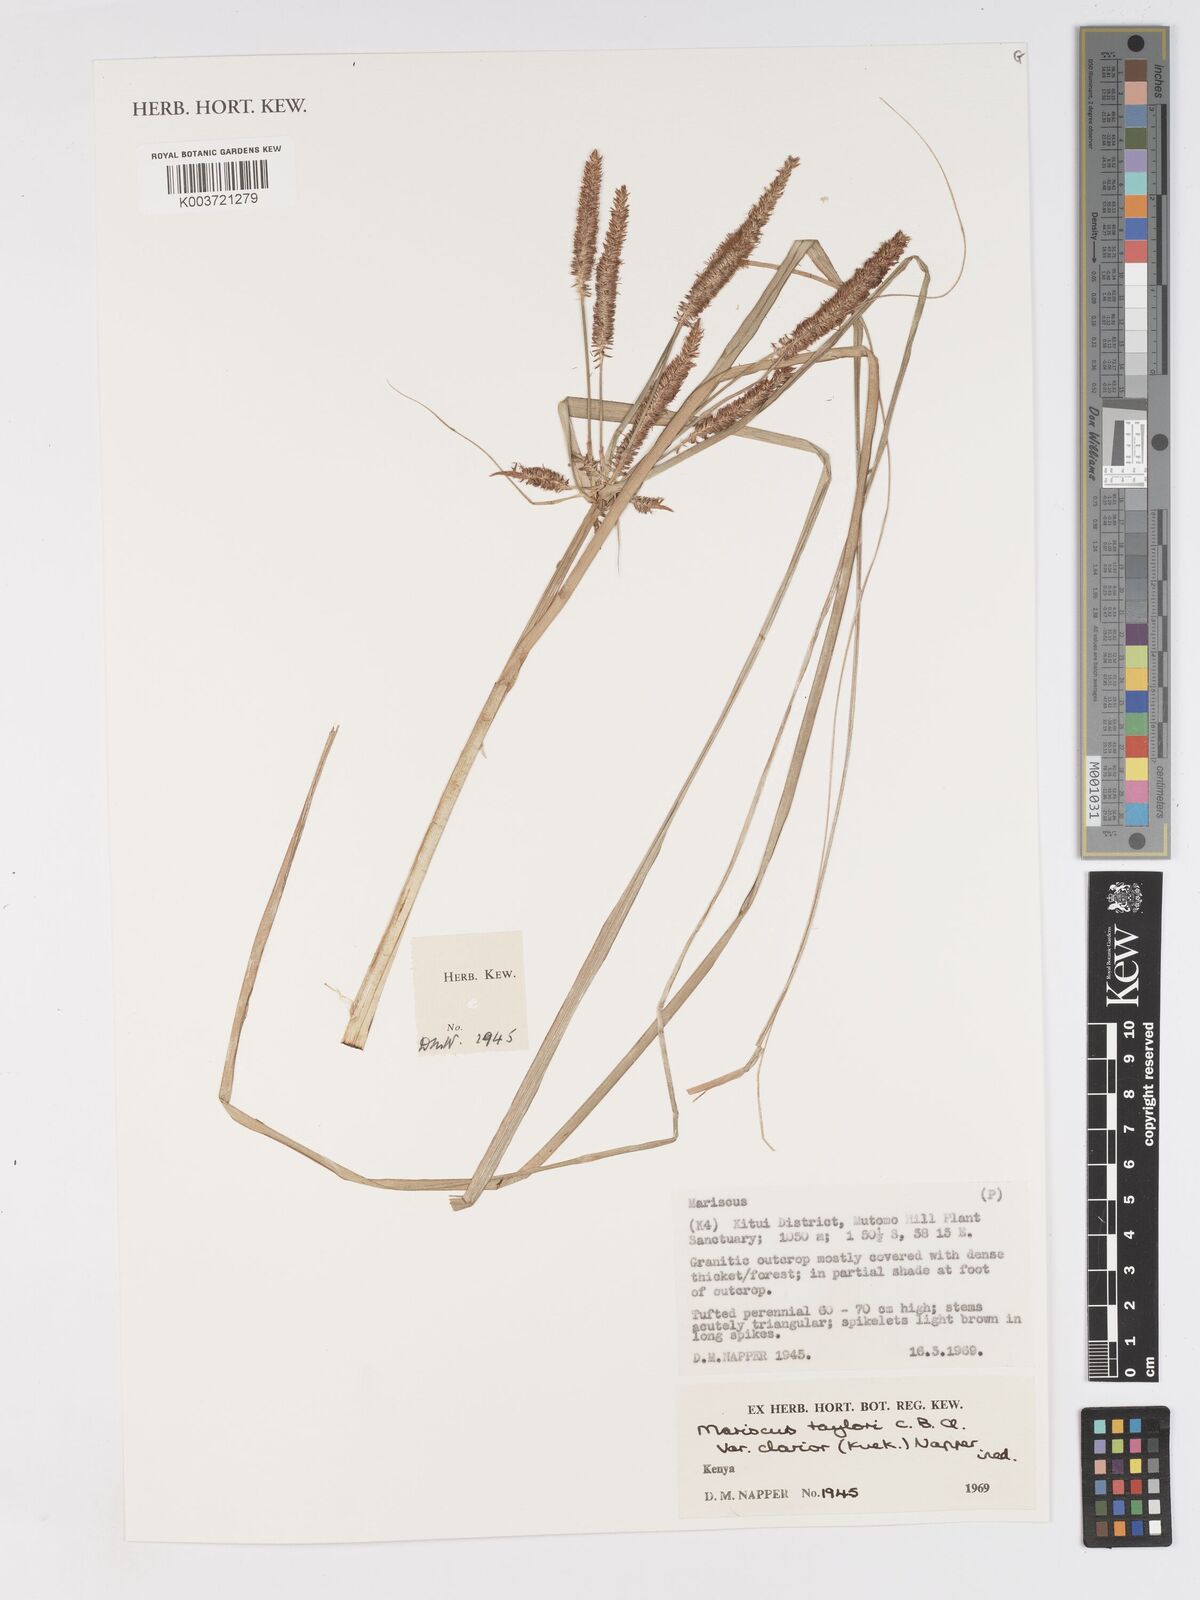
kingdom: Plantae
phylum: Tracheophyta
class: Liliopsida
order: Poales
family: Cyperaceae
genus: Cyperus
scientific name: Cyperus oblongoincrassatus
